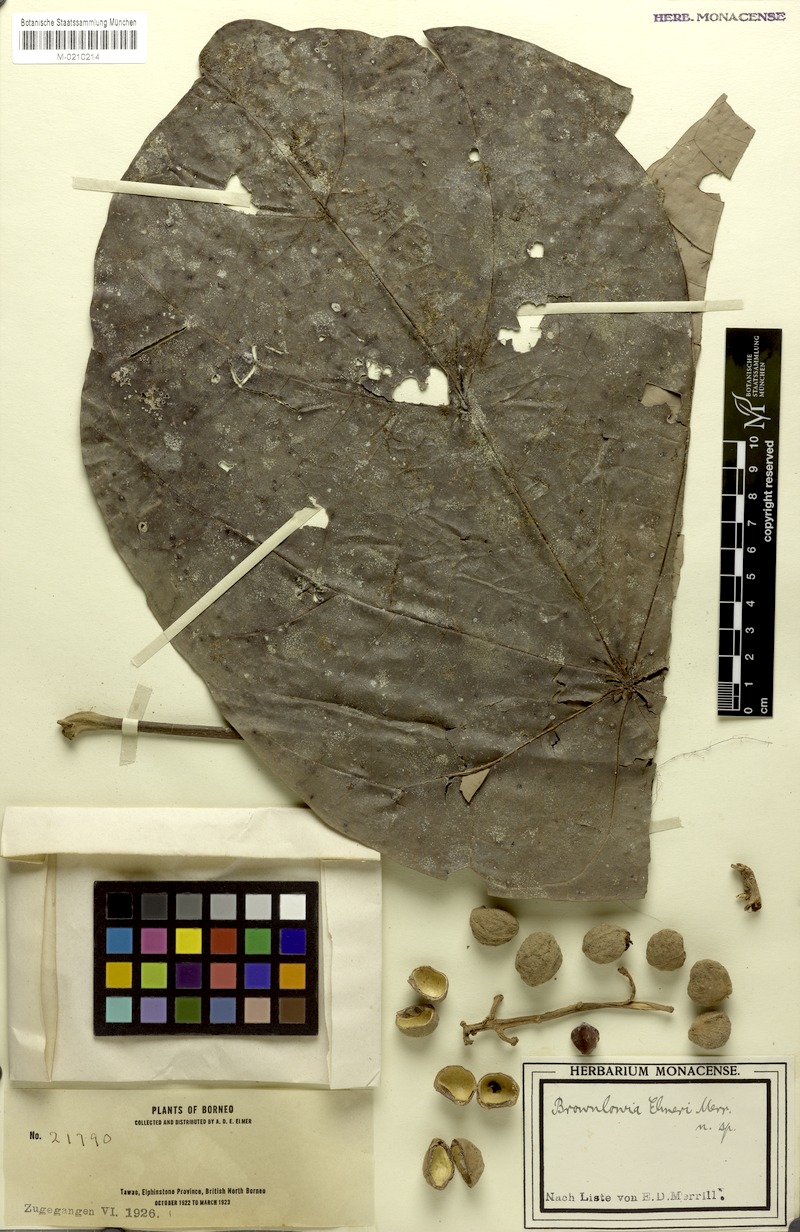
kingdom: Plantae
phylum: Tracheophyta
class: Magnoliopsida
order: Malvales
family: Malvaceae
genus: Brownlowia
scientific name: Brownlowia peltata
